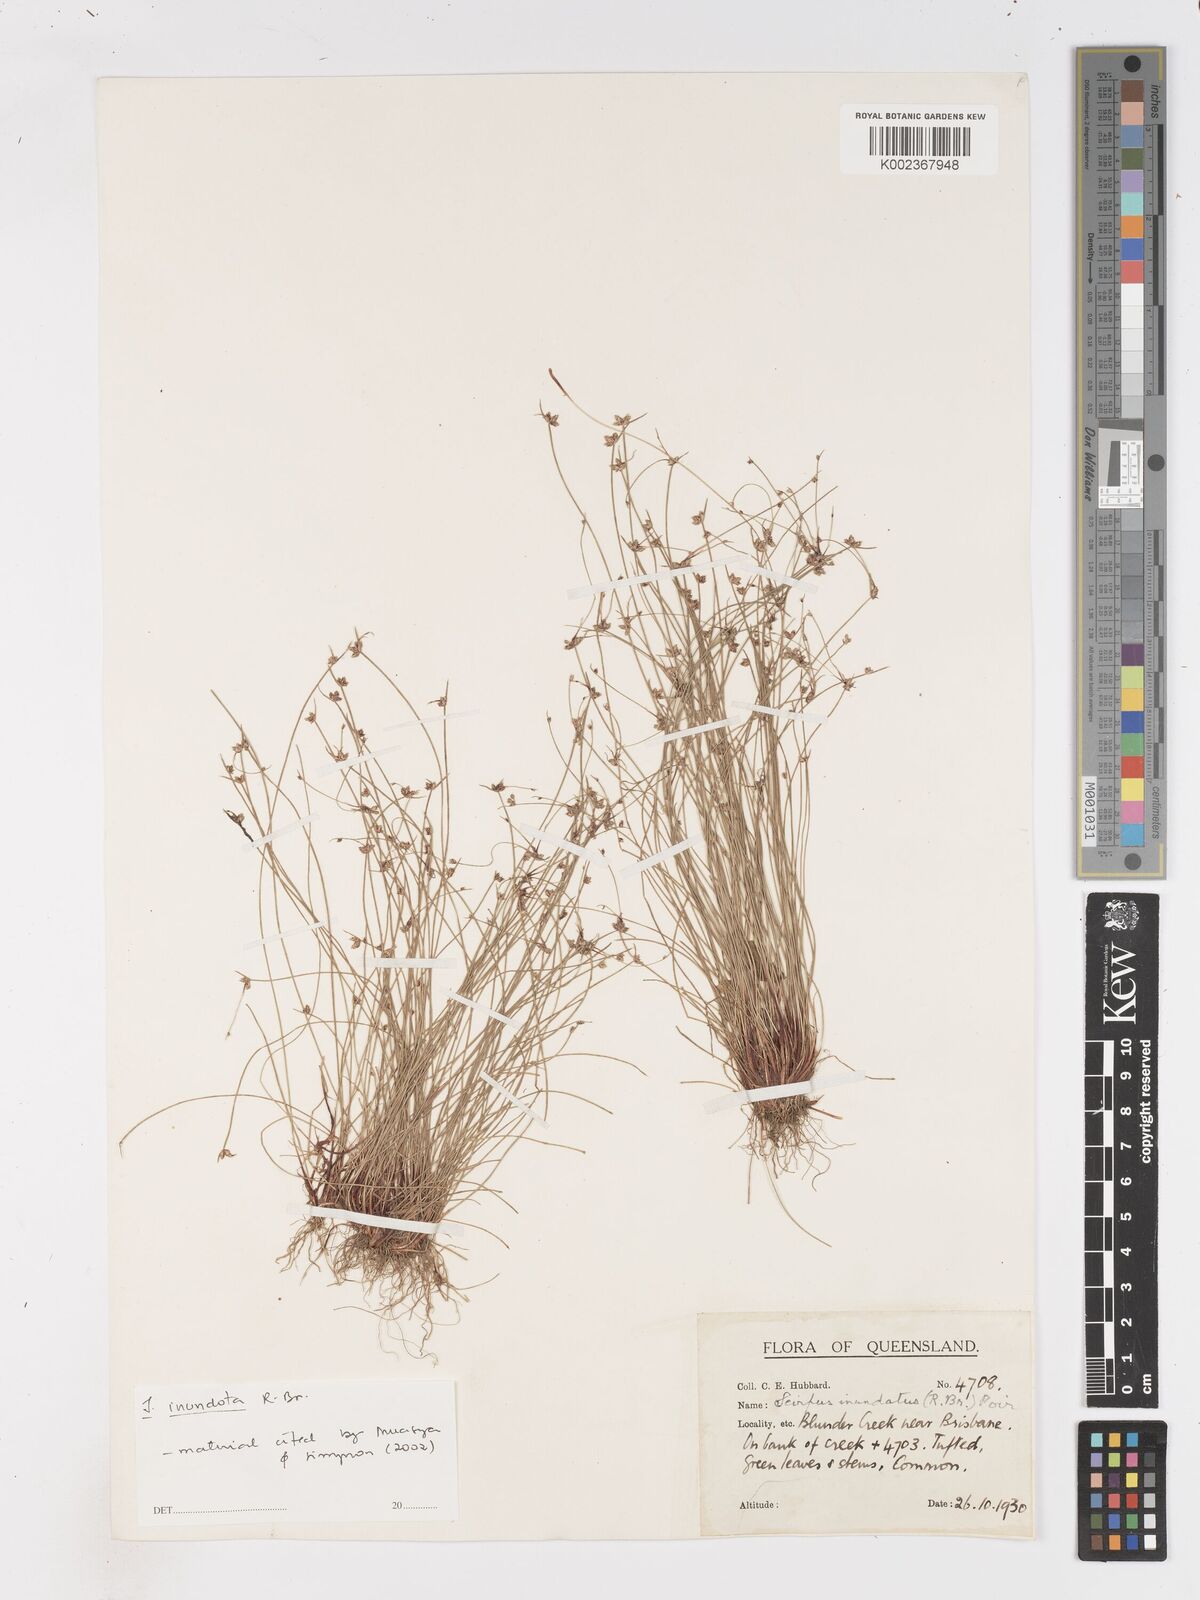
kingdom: Plantae
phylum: Tracheophyta
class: Liliopsida
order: Poales
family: Cyperaceae
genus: Isolepis
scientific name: Isolepis inundata
